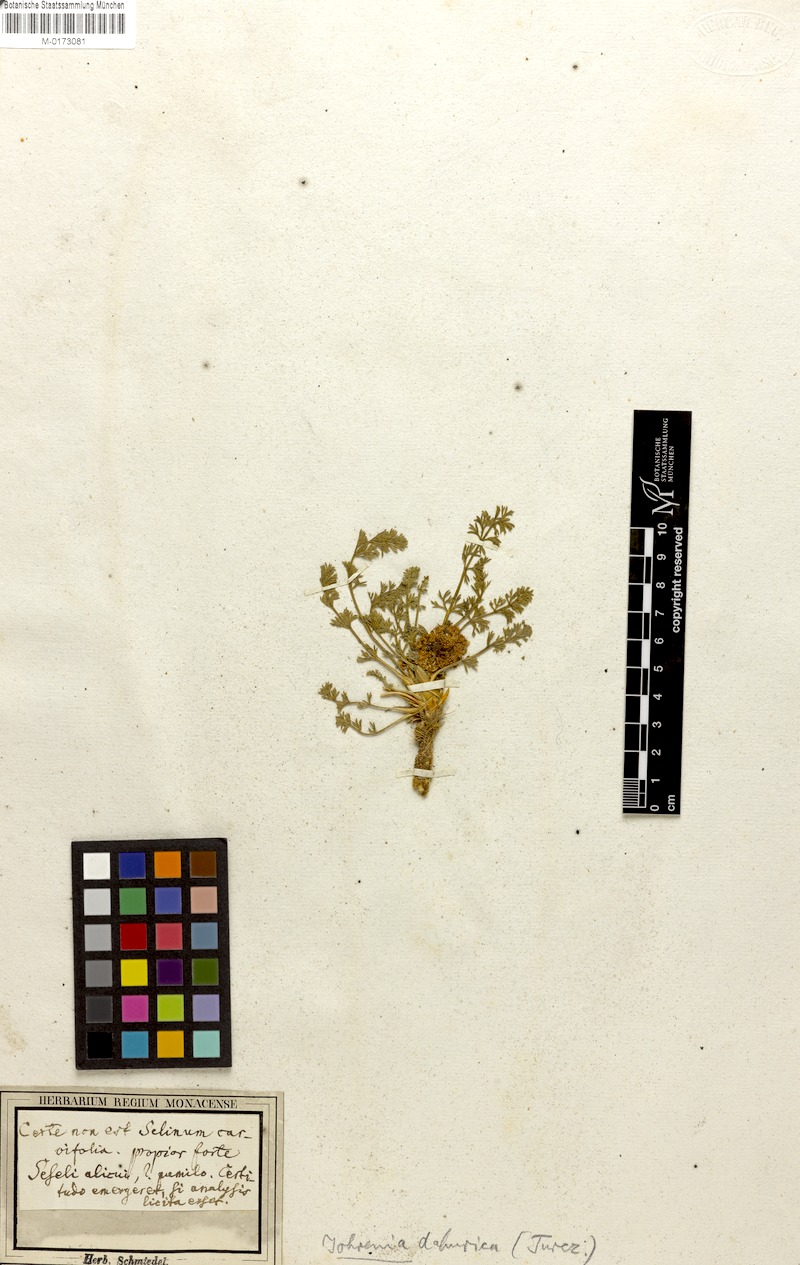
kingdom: Plantae
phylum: Tracheophyta
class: Magnoliopsida
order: Apiales
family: Apiaceae
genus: Phlojodicarpus
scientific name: Phlojodicarpus sibiricus
